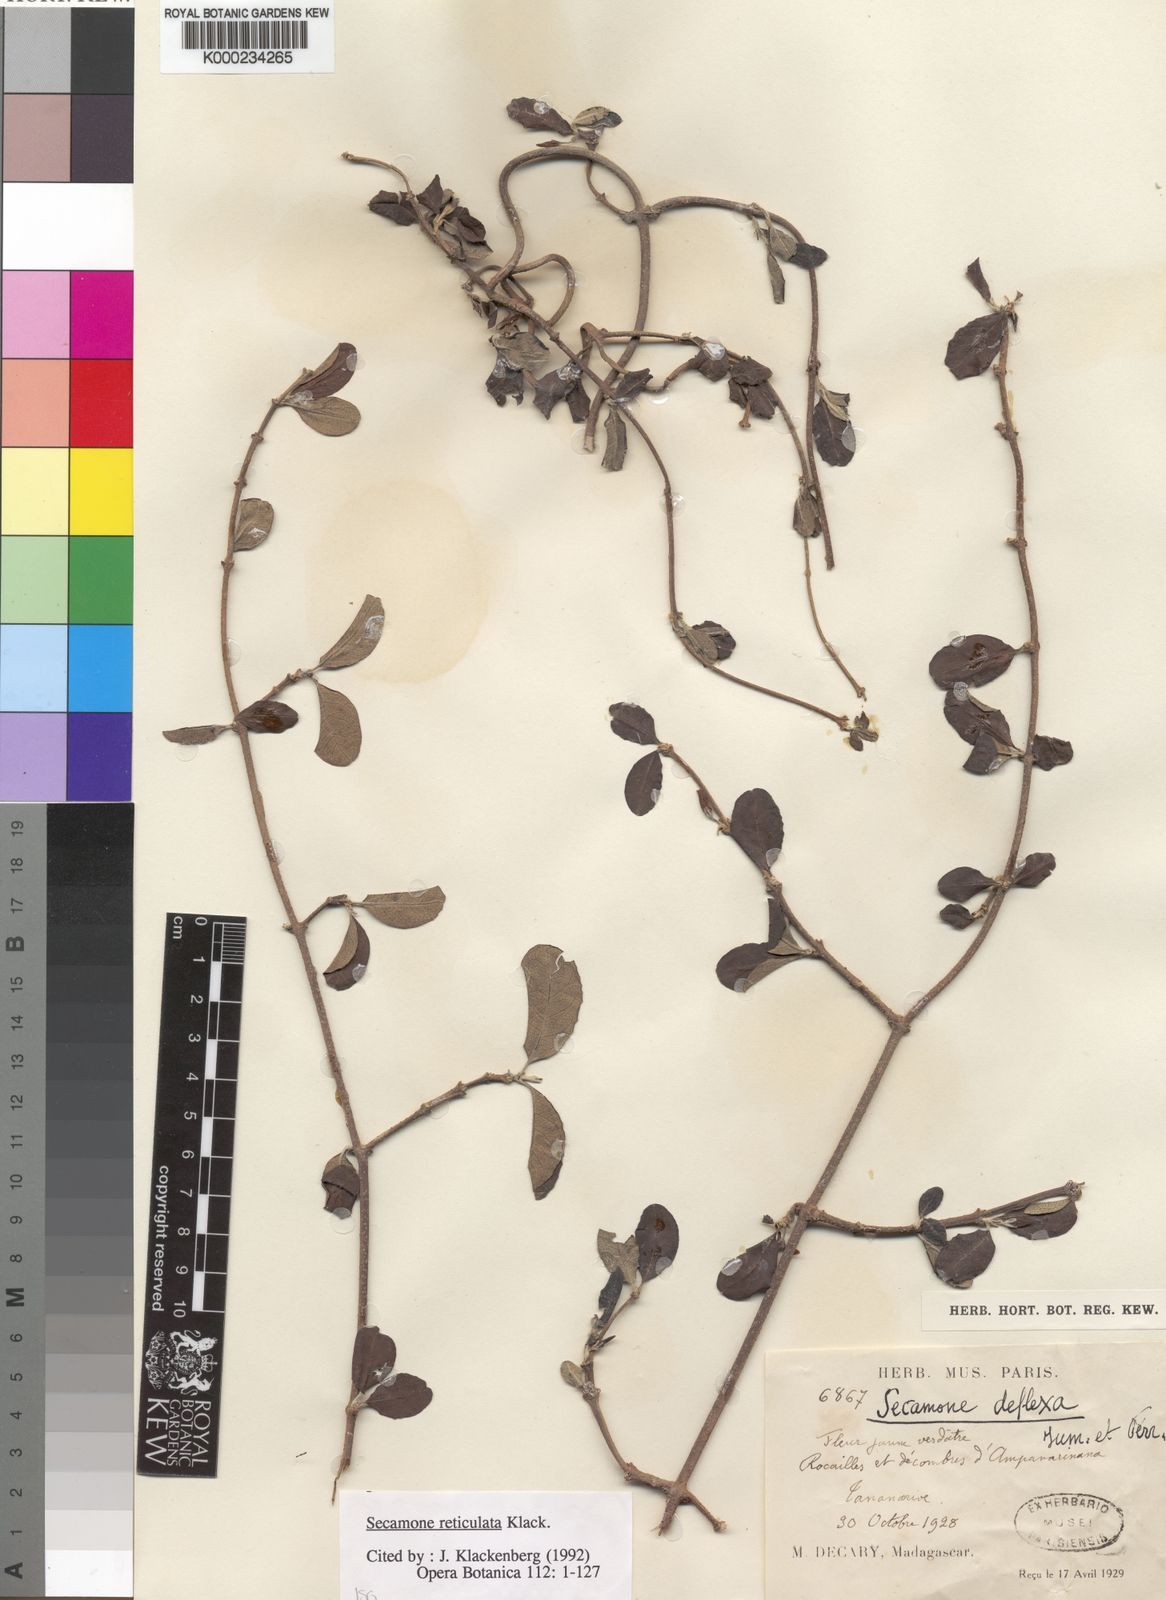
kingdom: Plantae
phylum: Tracheophyta
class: Magnoliopsida
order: Gentianales
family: Apocynaceae
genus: Secamone
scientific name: Secamone reticulata
